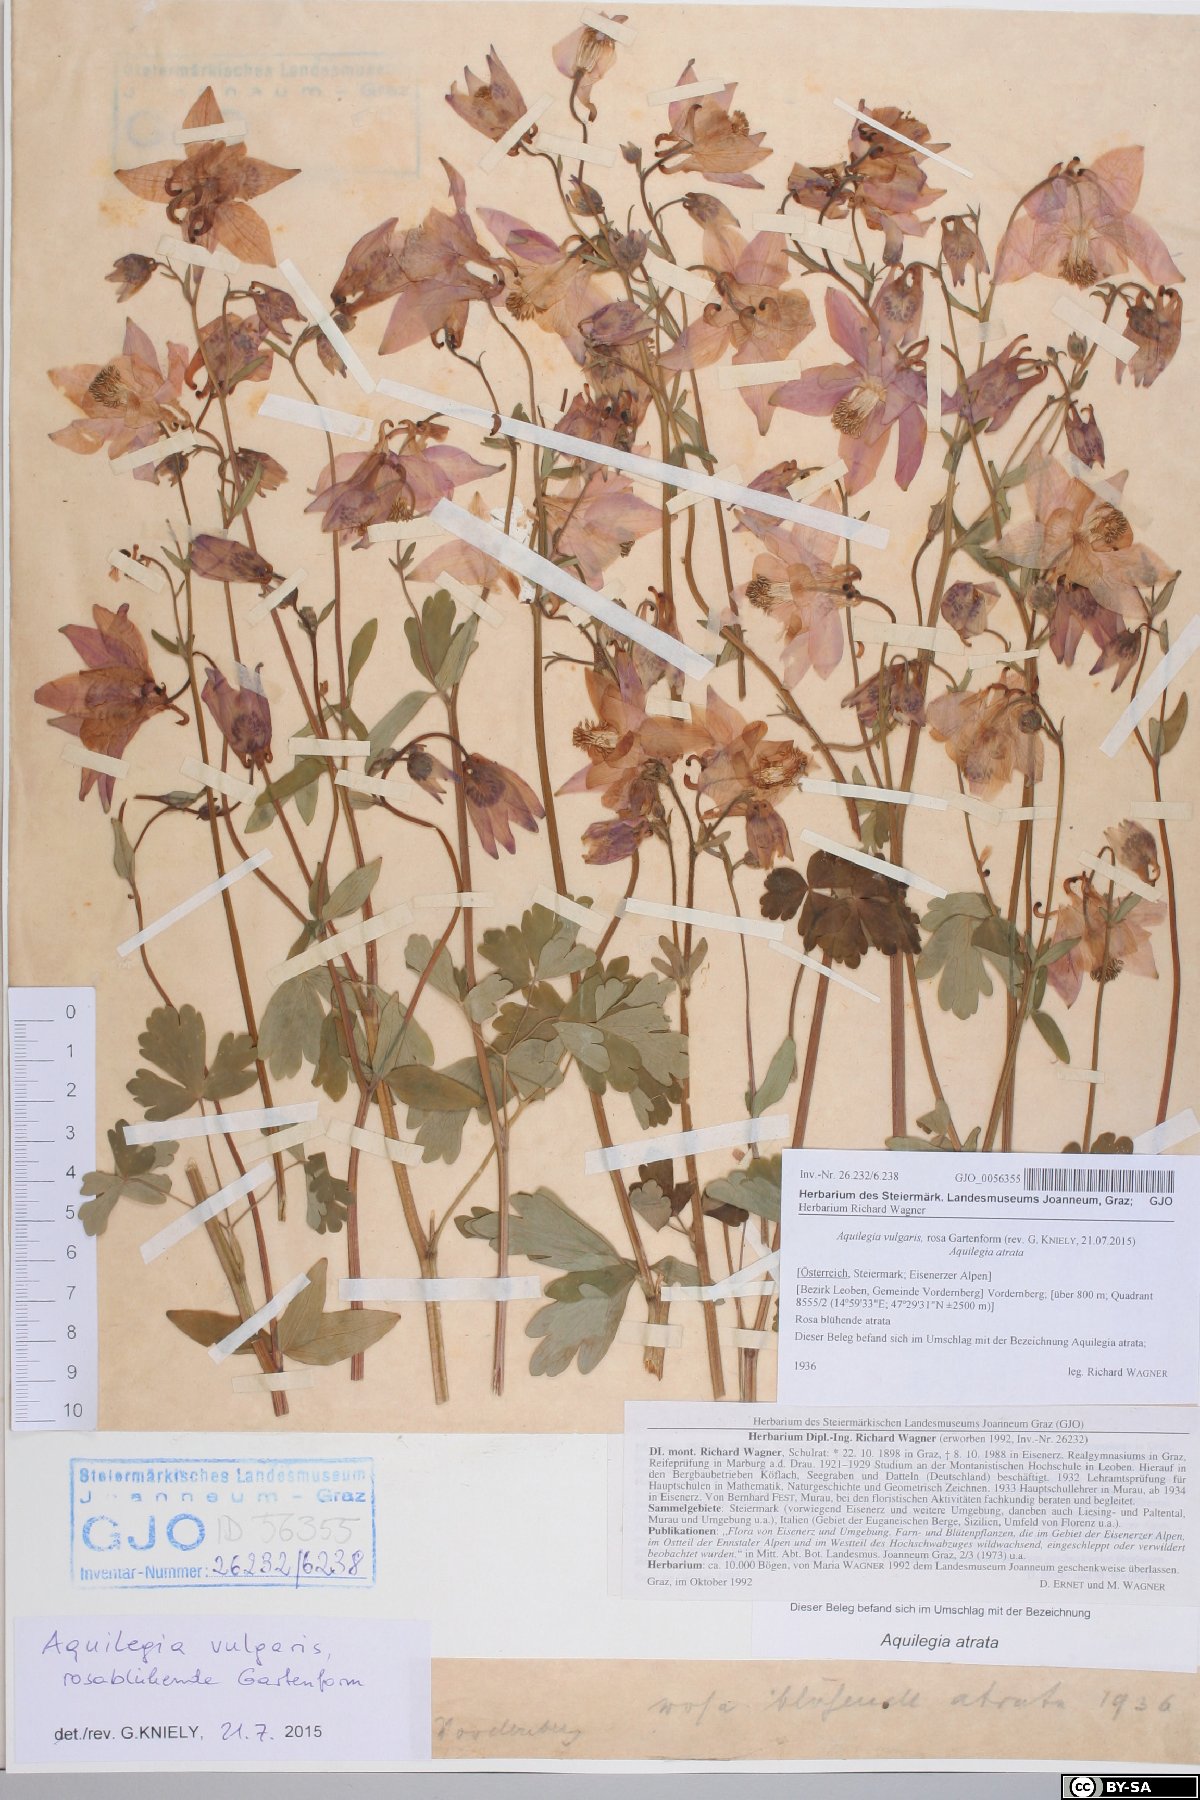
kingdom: Plantae
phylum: Tracheophyta
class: Magnoliopsida
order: Ranunculales
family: Ranunculaceae
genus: Aquilegia
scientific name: Aquilegia vulgaris
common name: Columbine
